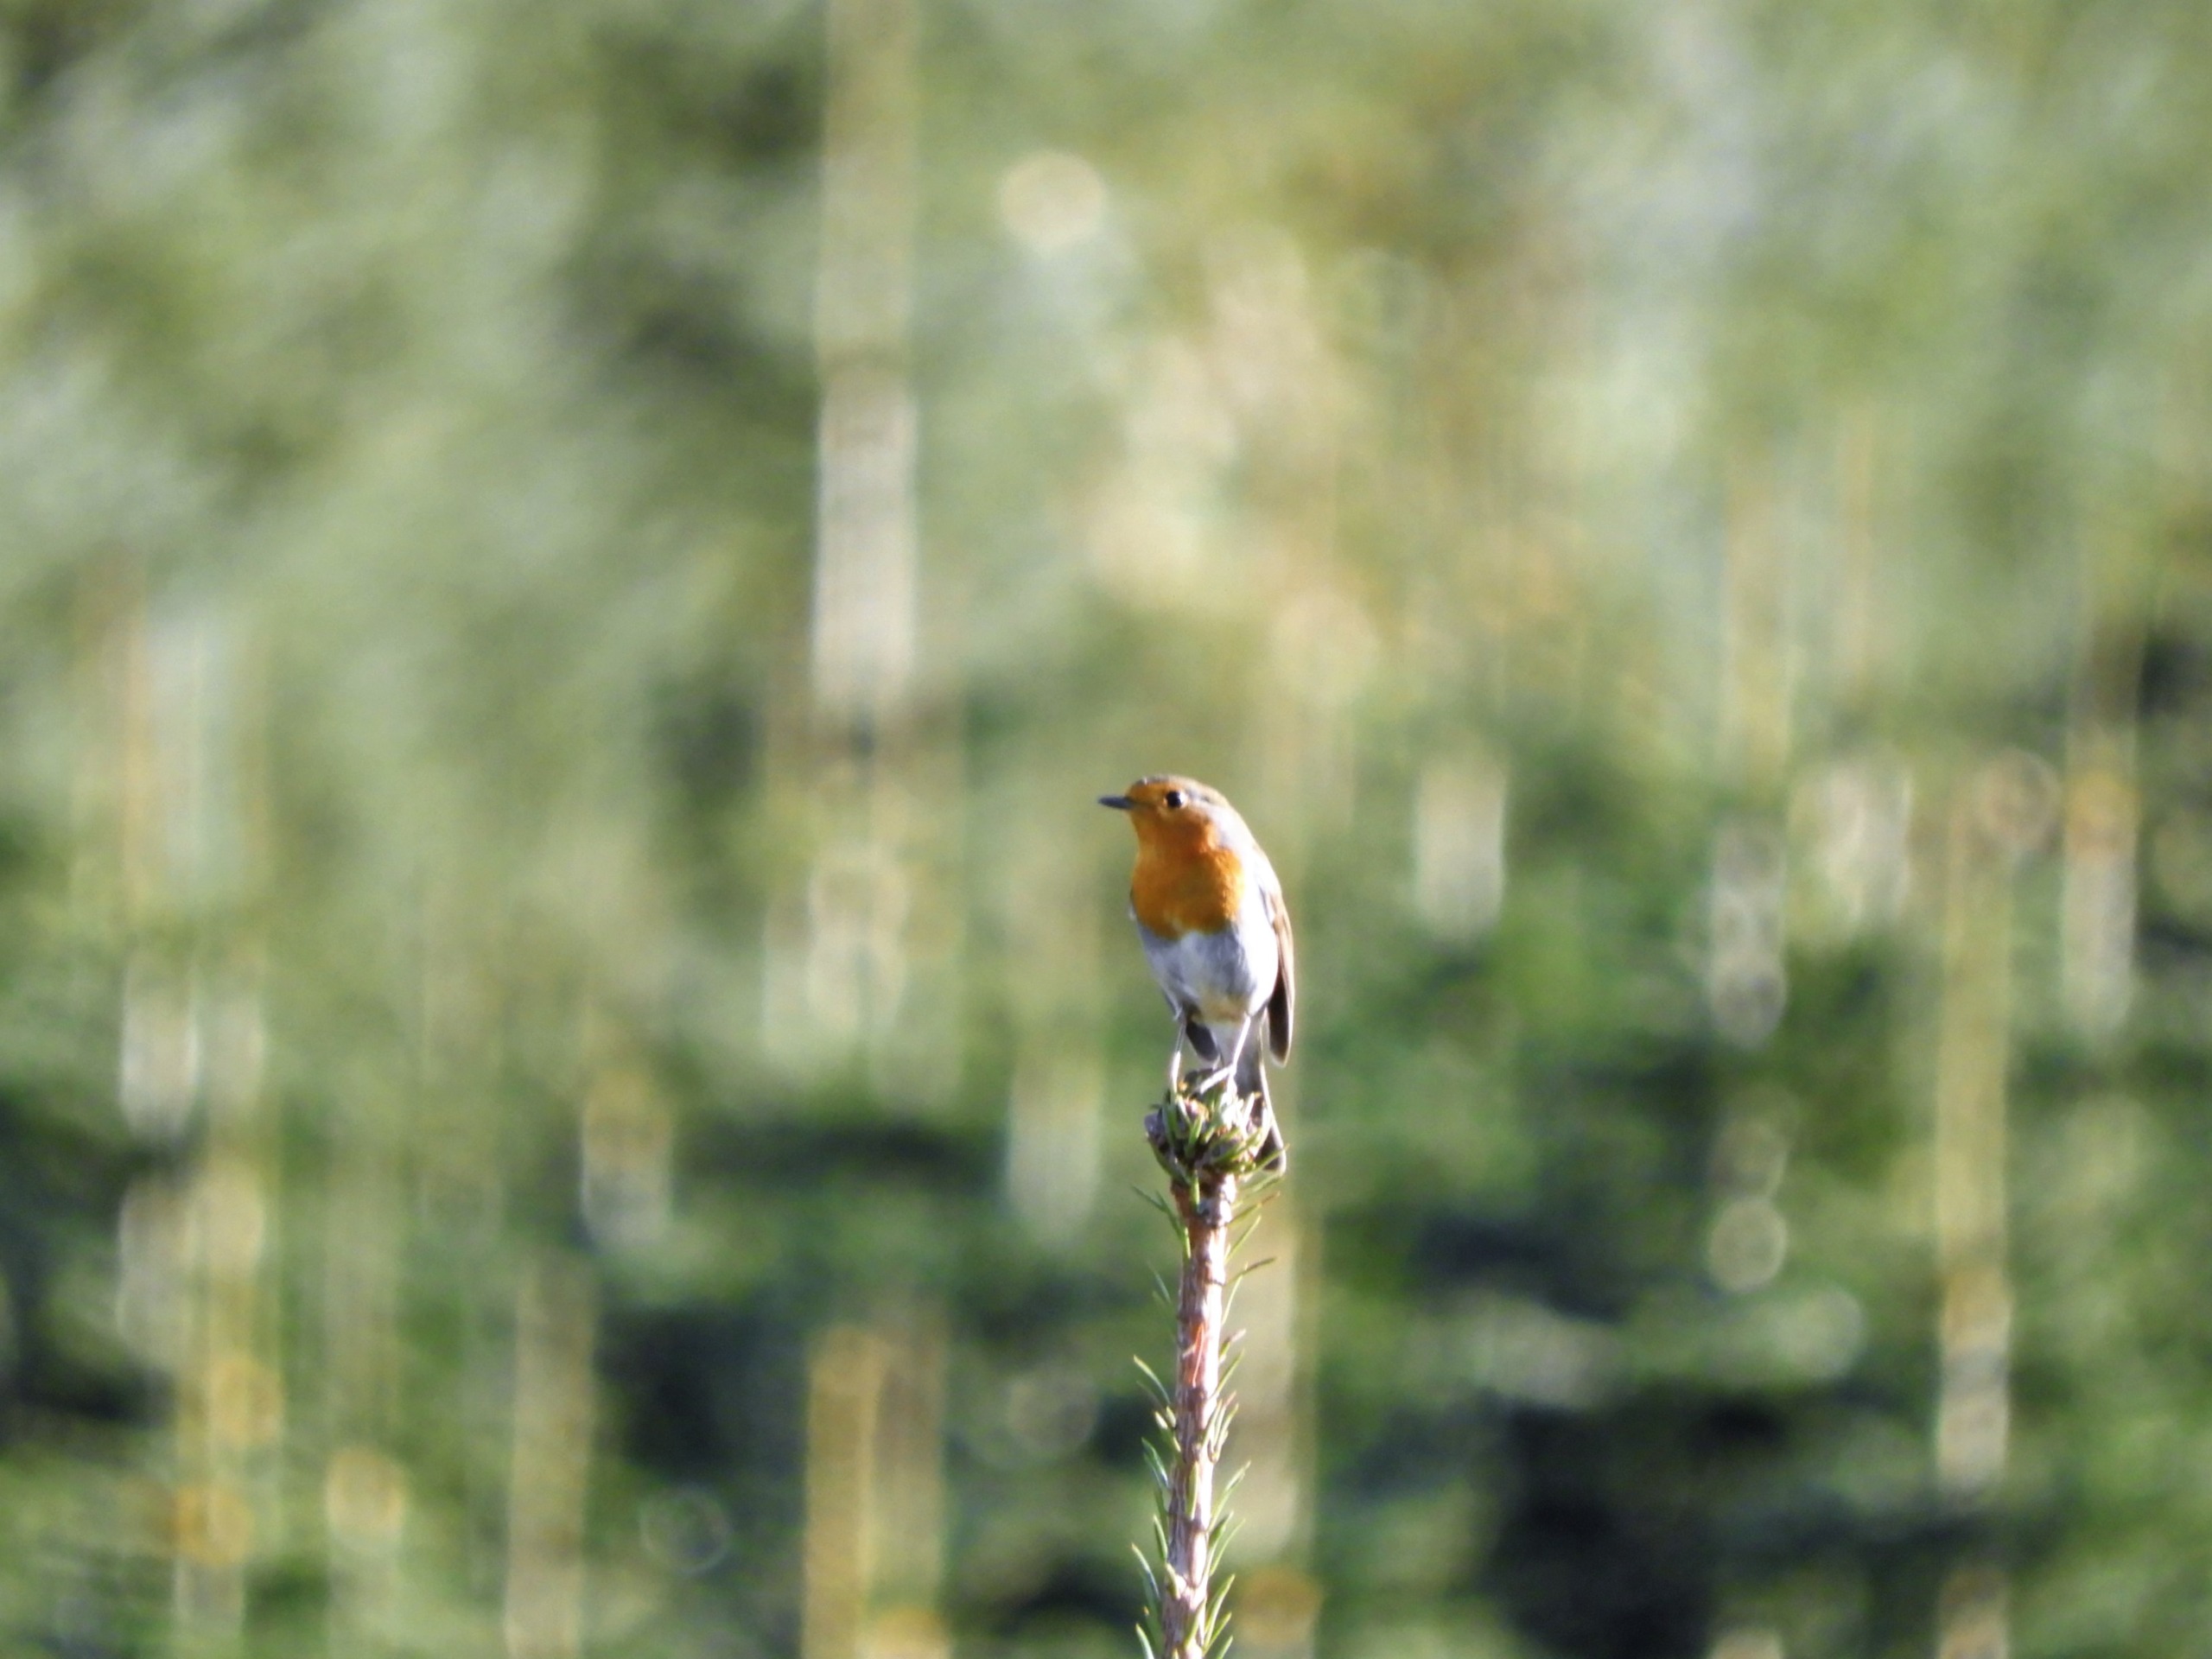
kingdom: Animalia
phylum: Chordata
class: Aves
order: Passeriformes
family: Muscicapidae
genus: Erithacus
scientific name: Erithacus rubecula
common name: Rødhals/rødkælk
